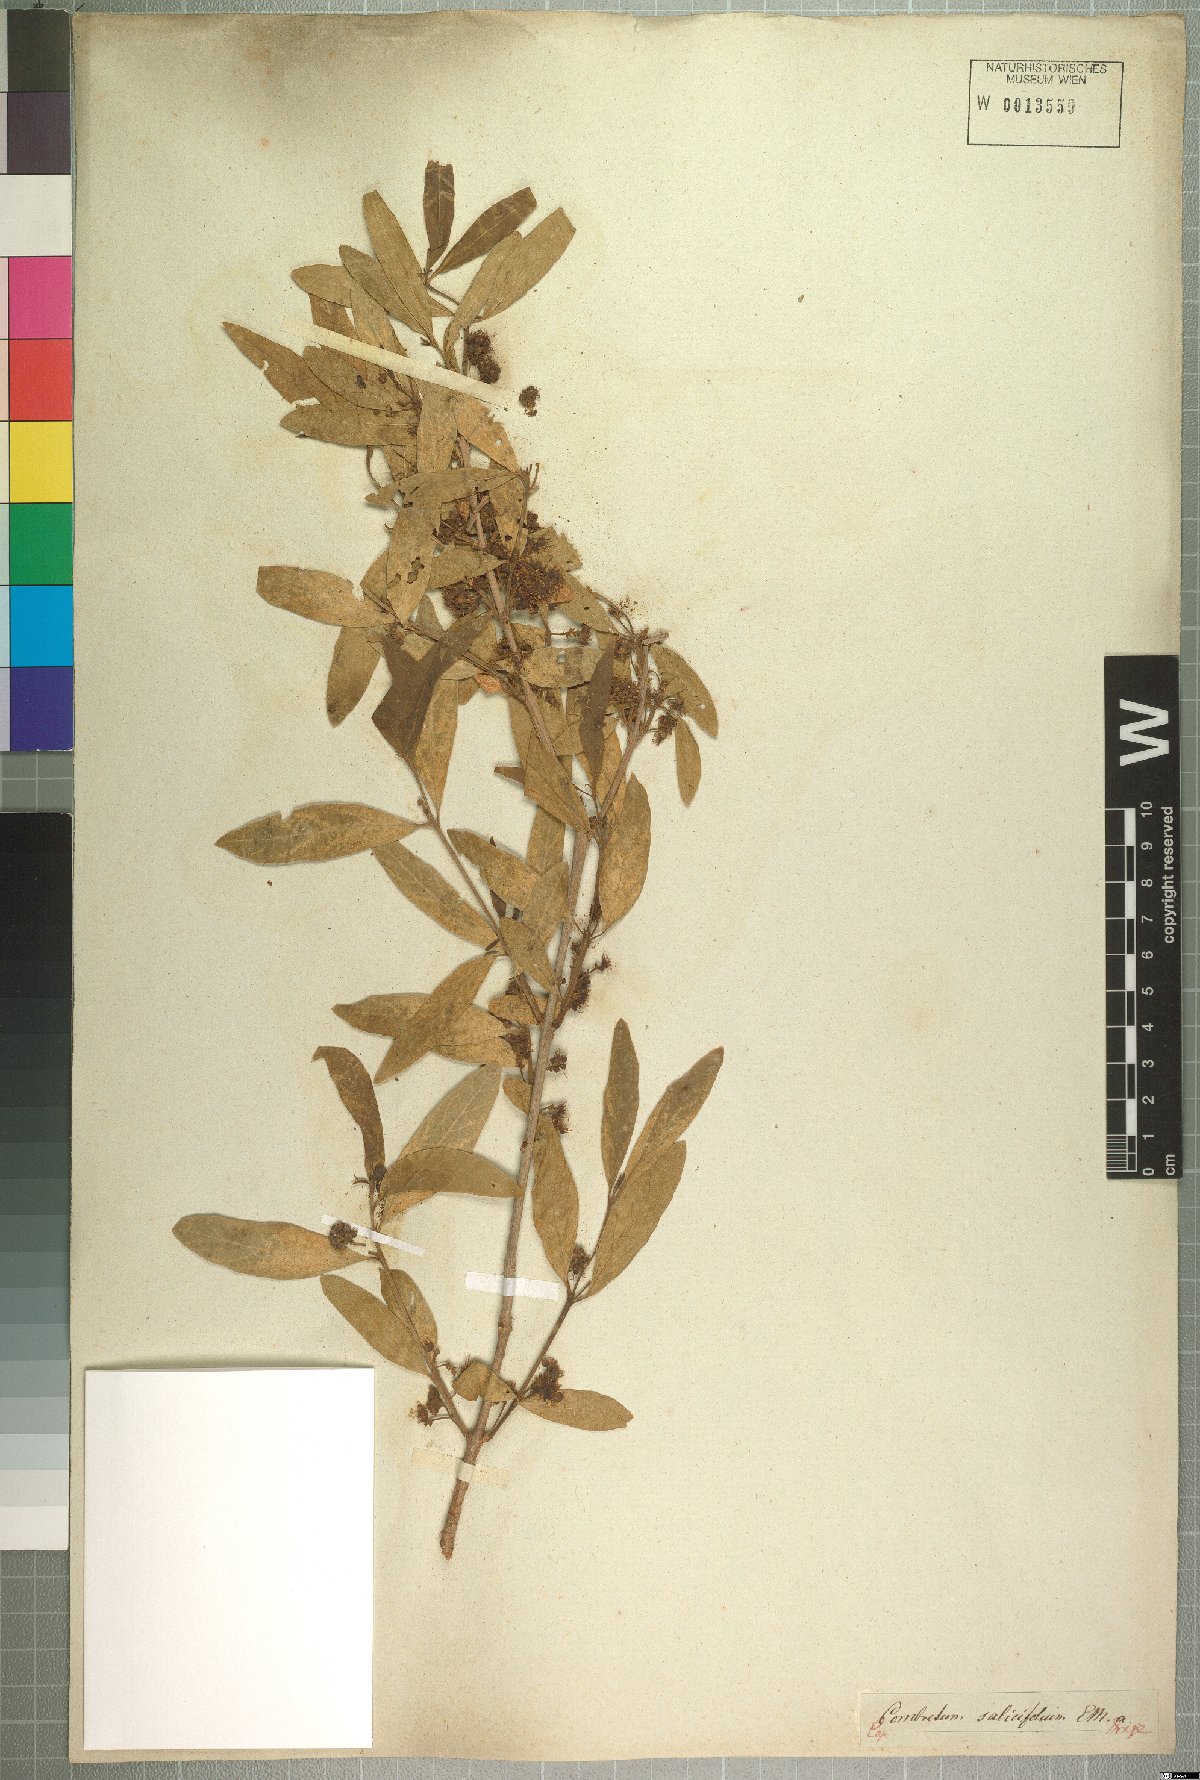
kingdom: Plantae
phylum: Tracheophyta
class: Magnoliopsida
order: Myrtales
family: Combretaceae
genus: Combretum
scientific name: Combretum caffrum
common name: Cape bushwillow
